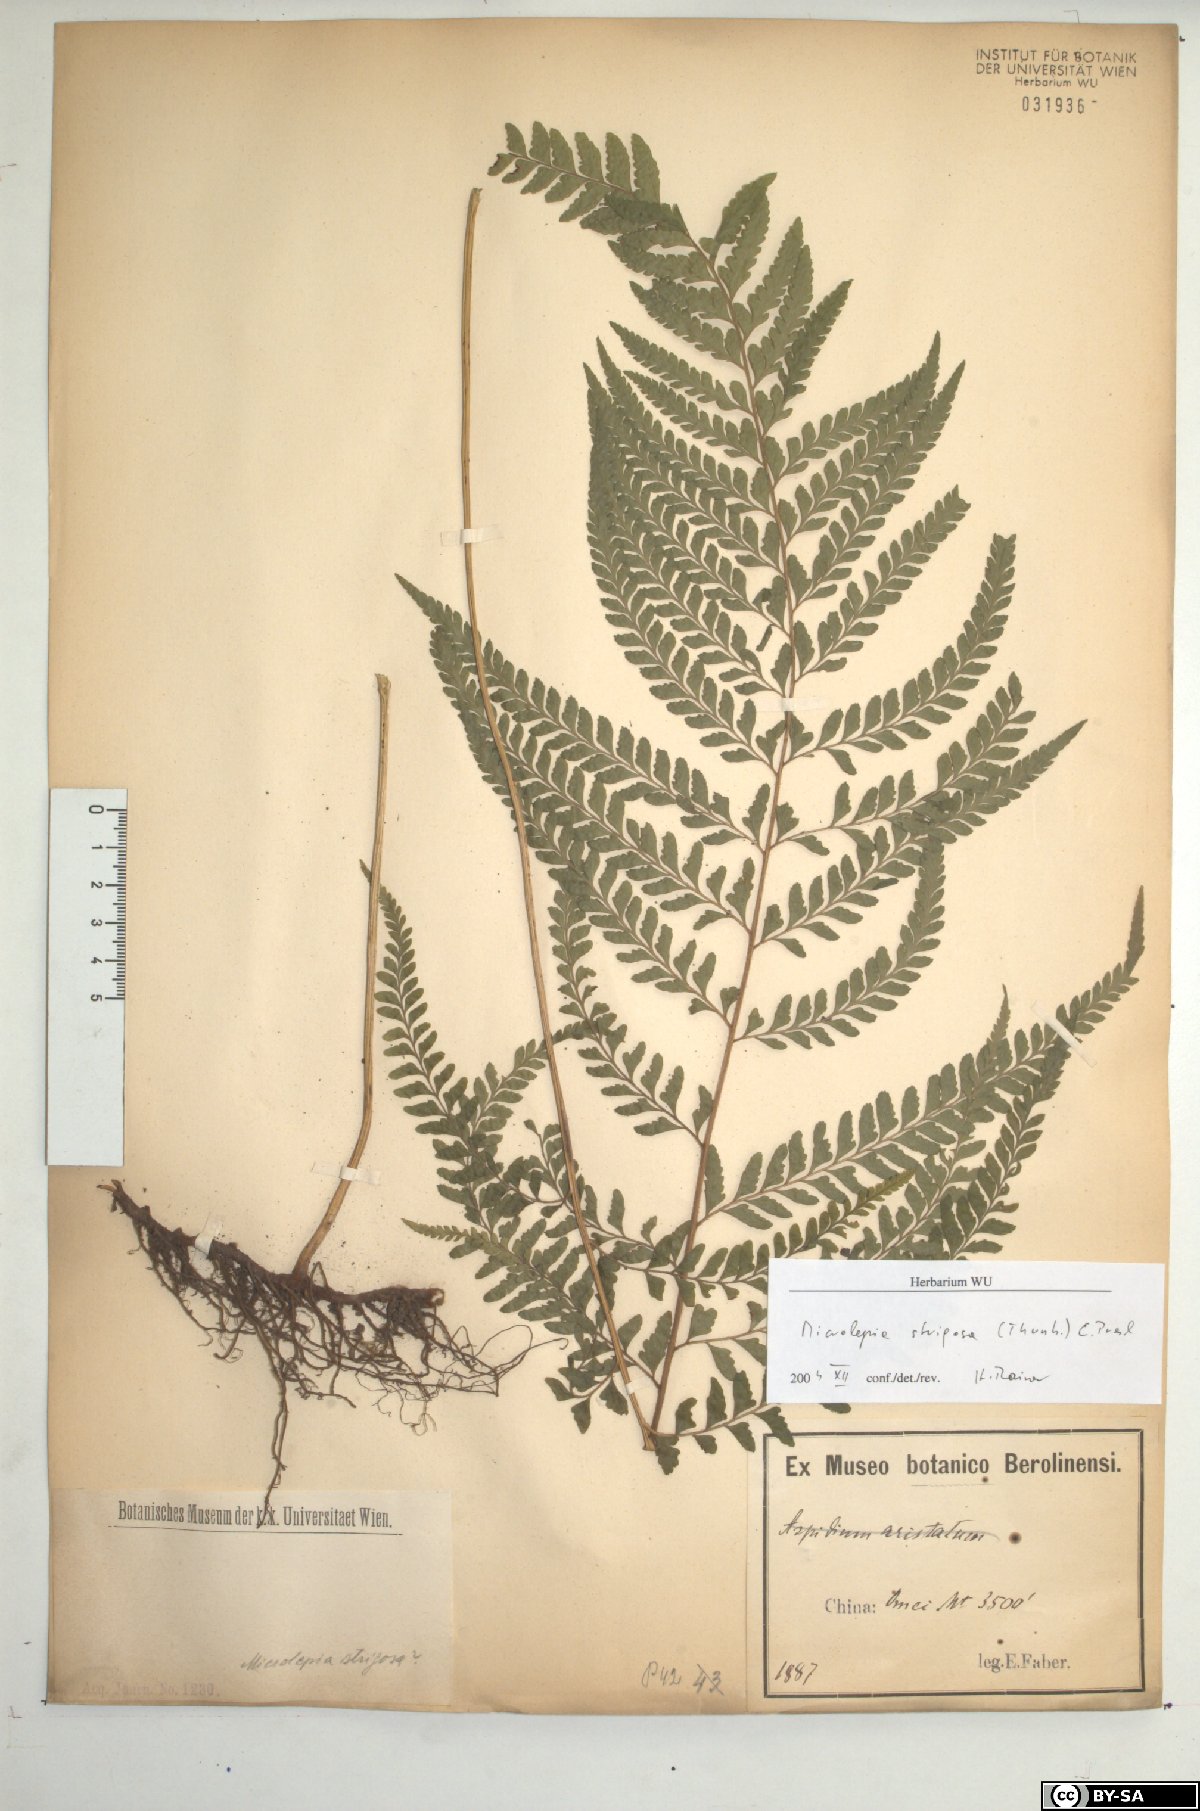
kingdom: Plantae
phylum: Tracheophyta
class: Polypodiopsida
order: Polypodiales
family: Dennstaedtiaceae
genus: Microlepia
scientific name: Microlepia strigosa
